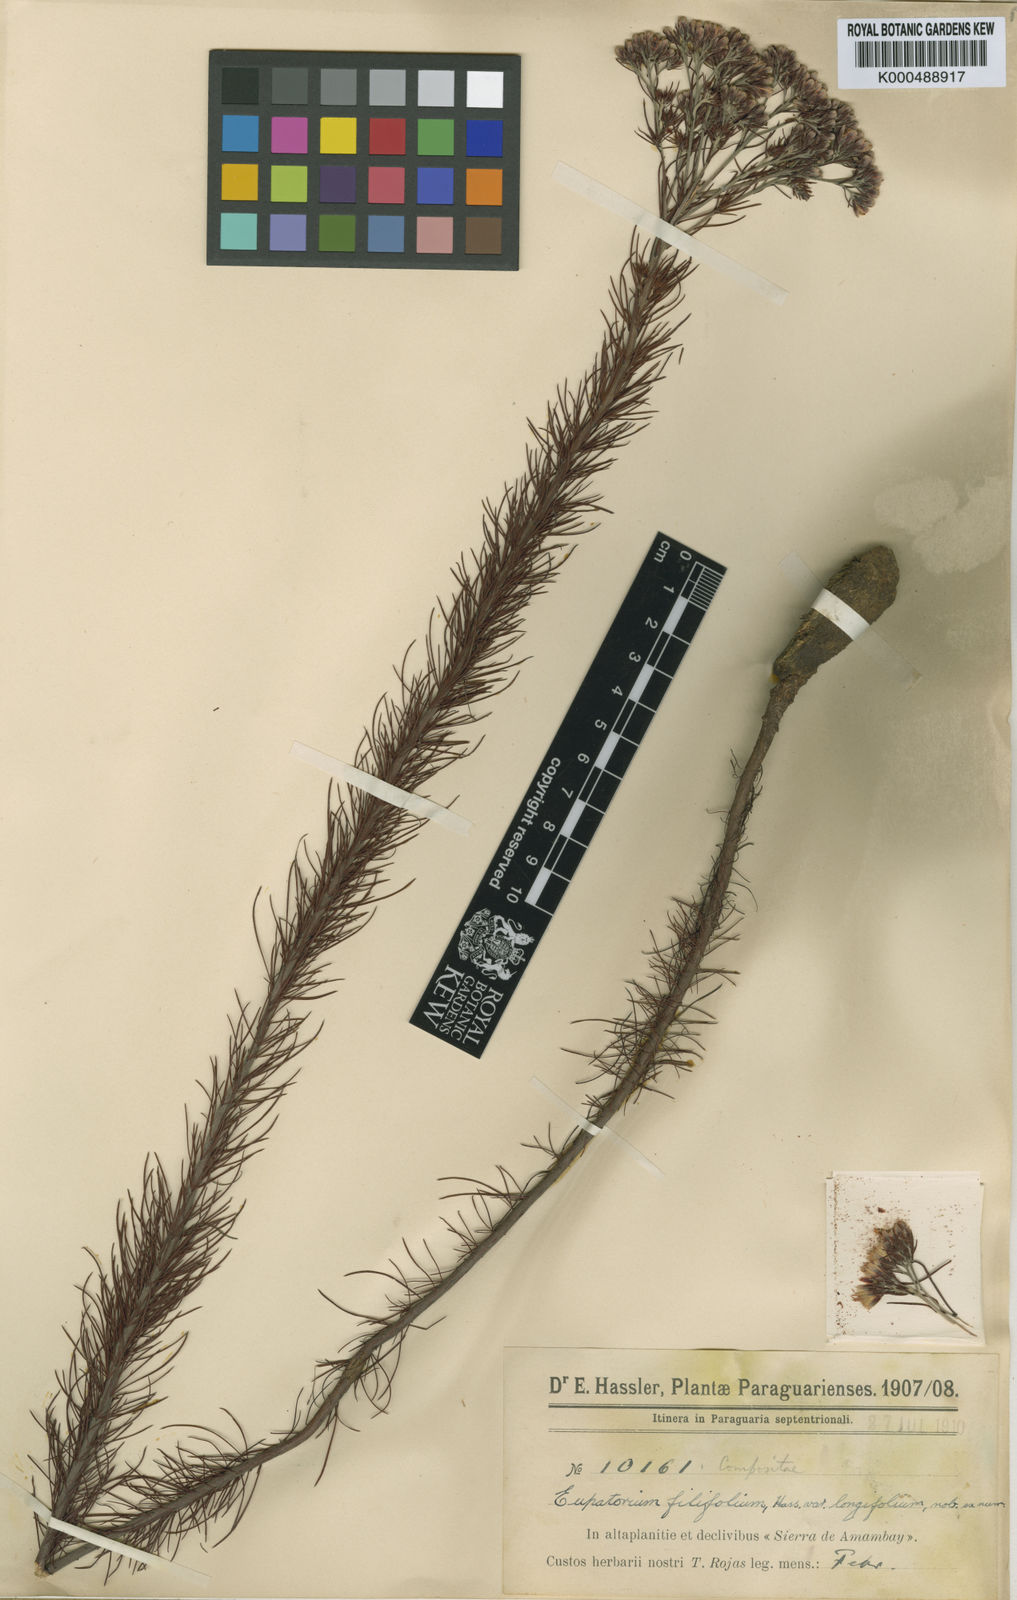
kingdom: Plantae
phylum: Tracheophyta
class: Magnoliopsida
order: Asterales
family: Asteraceae
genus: Disynaphia
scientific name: Disynaphia filifolia
